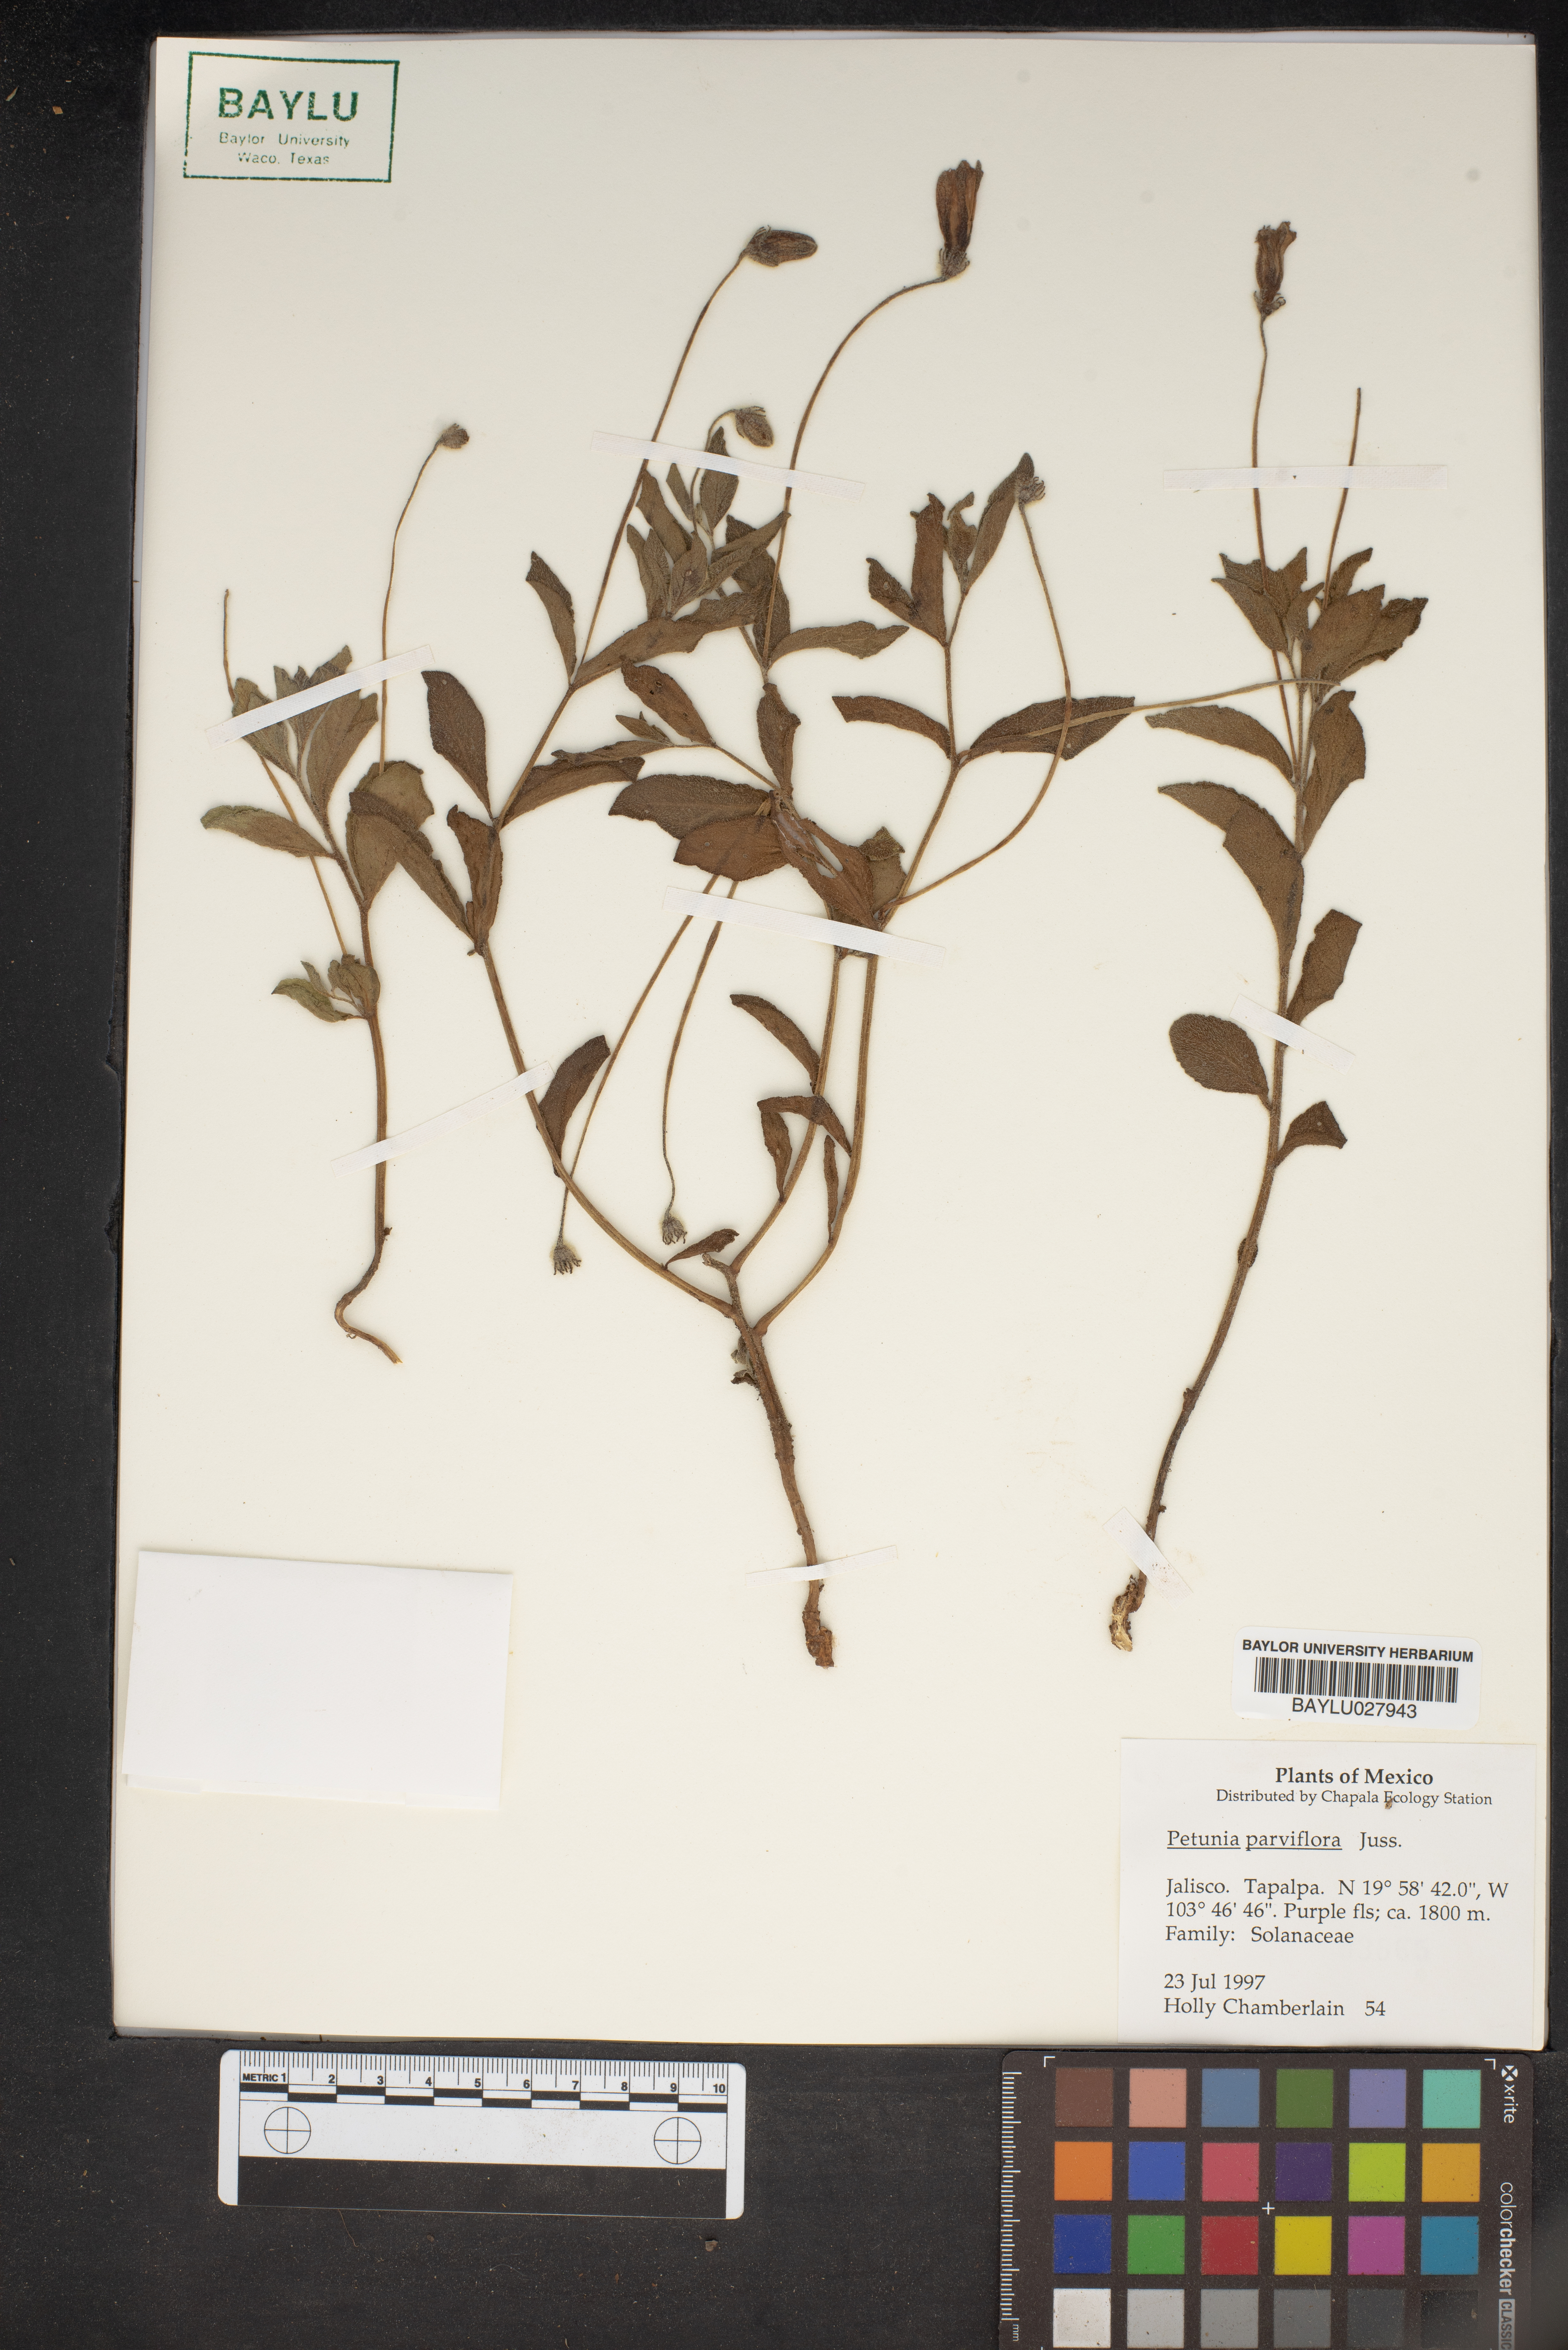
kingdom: Plantae
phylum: Tracheophyta
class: Magnoliopsida
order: Solanales
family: Solanaceae
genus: Calibrachoa
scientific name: Calibrachoa parviflora
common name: Seaside petunia
